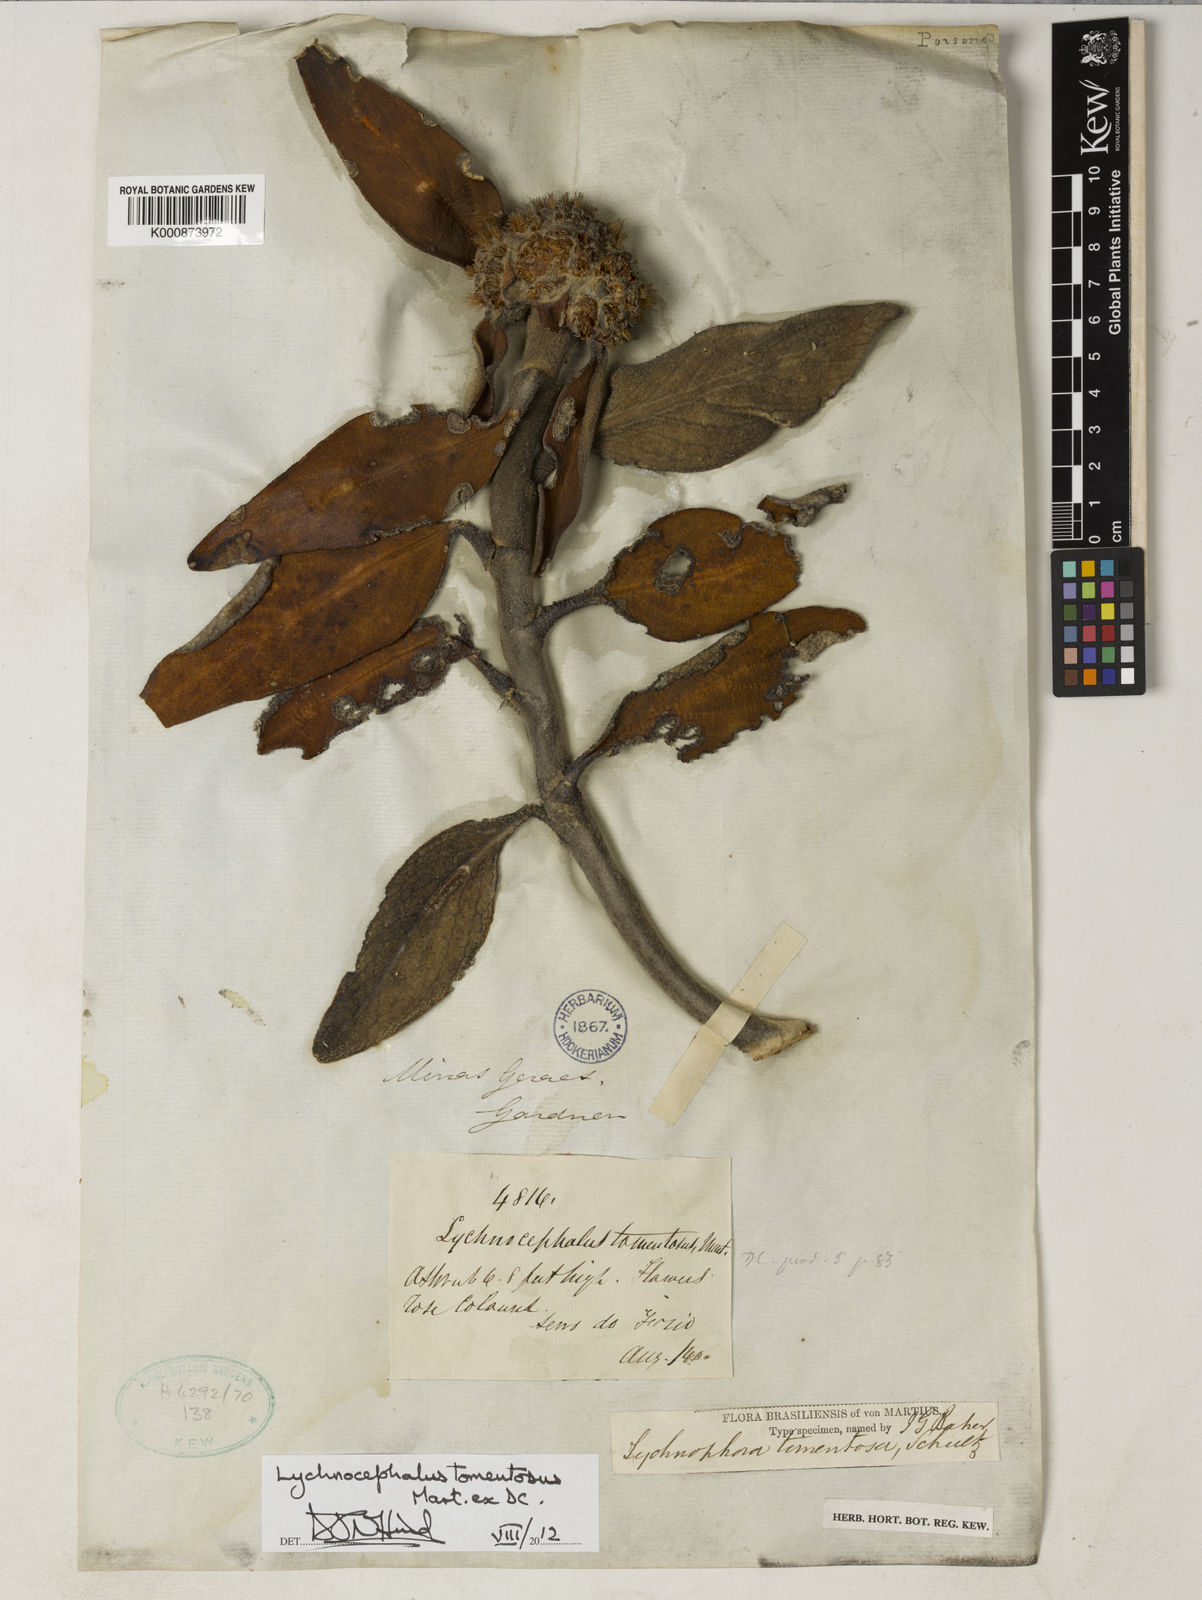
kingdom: Plantae
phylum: Tracheophyta
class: Magnoliopsida
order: Asterales
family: Asteraceae
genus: Lychnocephalus
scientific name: Lychnocephalus tomentosus
